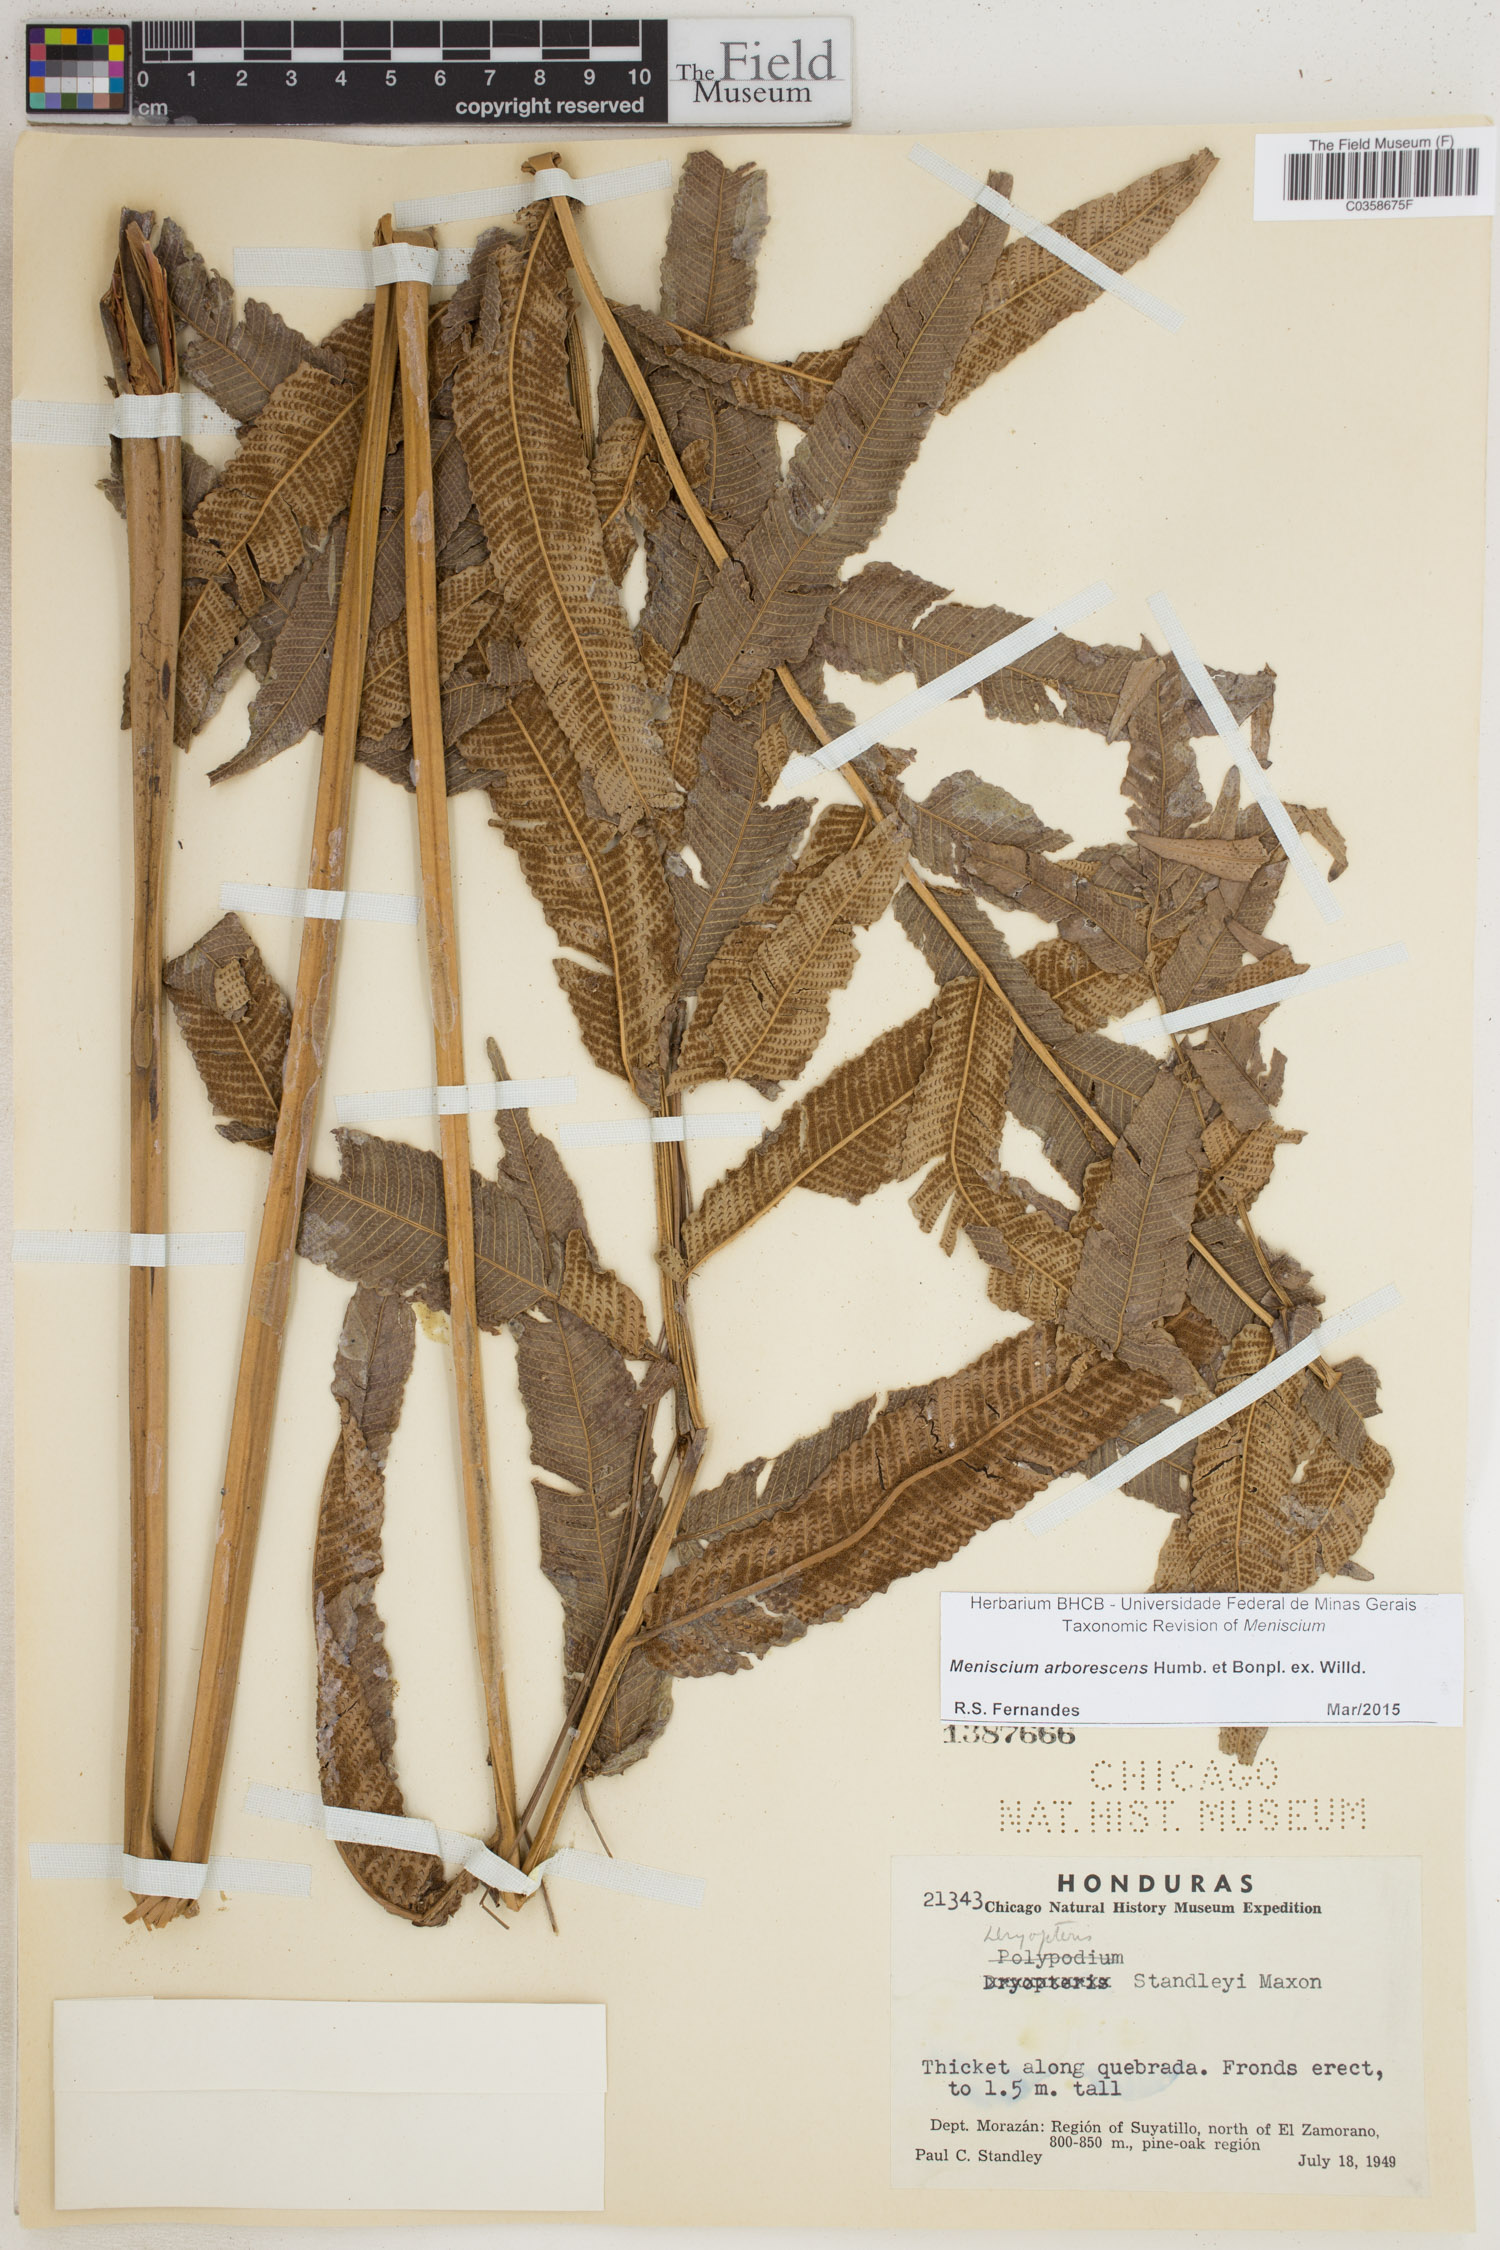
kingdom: Plantae
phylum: Tracheophyta
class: Polypodiopsida
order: Polypodiales
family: Thelypteridaceae
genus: Meniscium
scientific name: Meniscium arborescens
